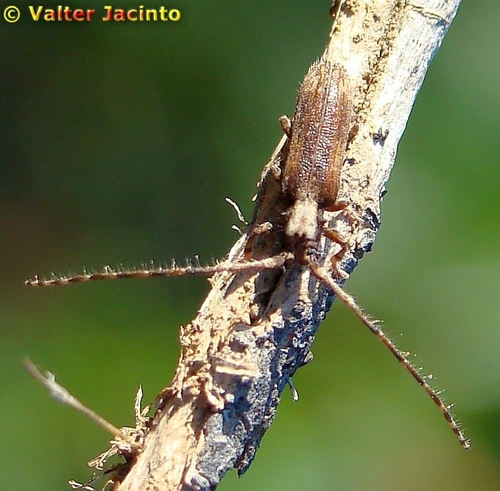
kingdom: Animalia
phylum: Arthropoda
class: Insecta
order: Coleoptera
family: Cerambycidae
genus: Deroplia
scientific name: Deroplia troberti
